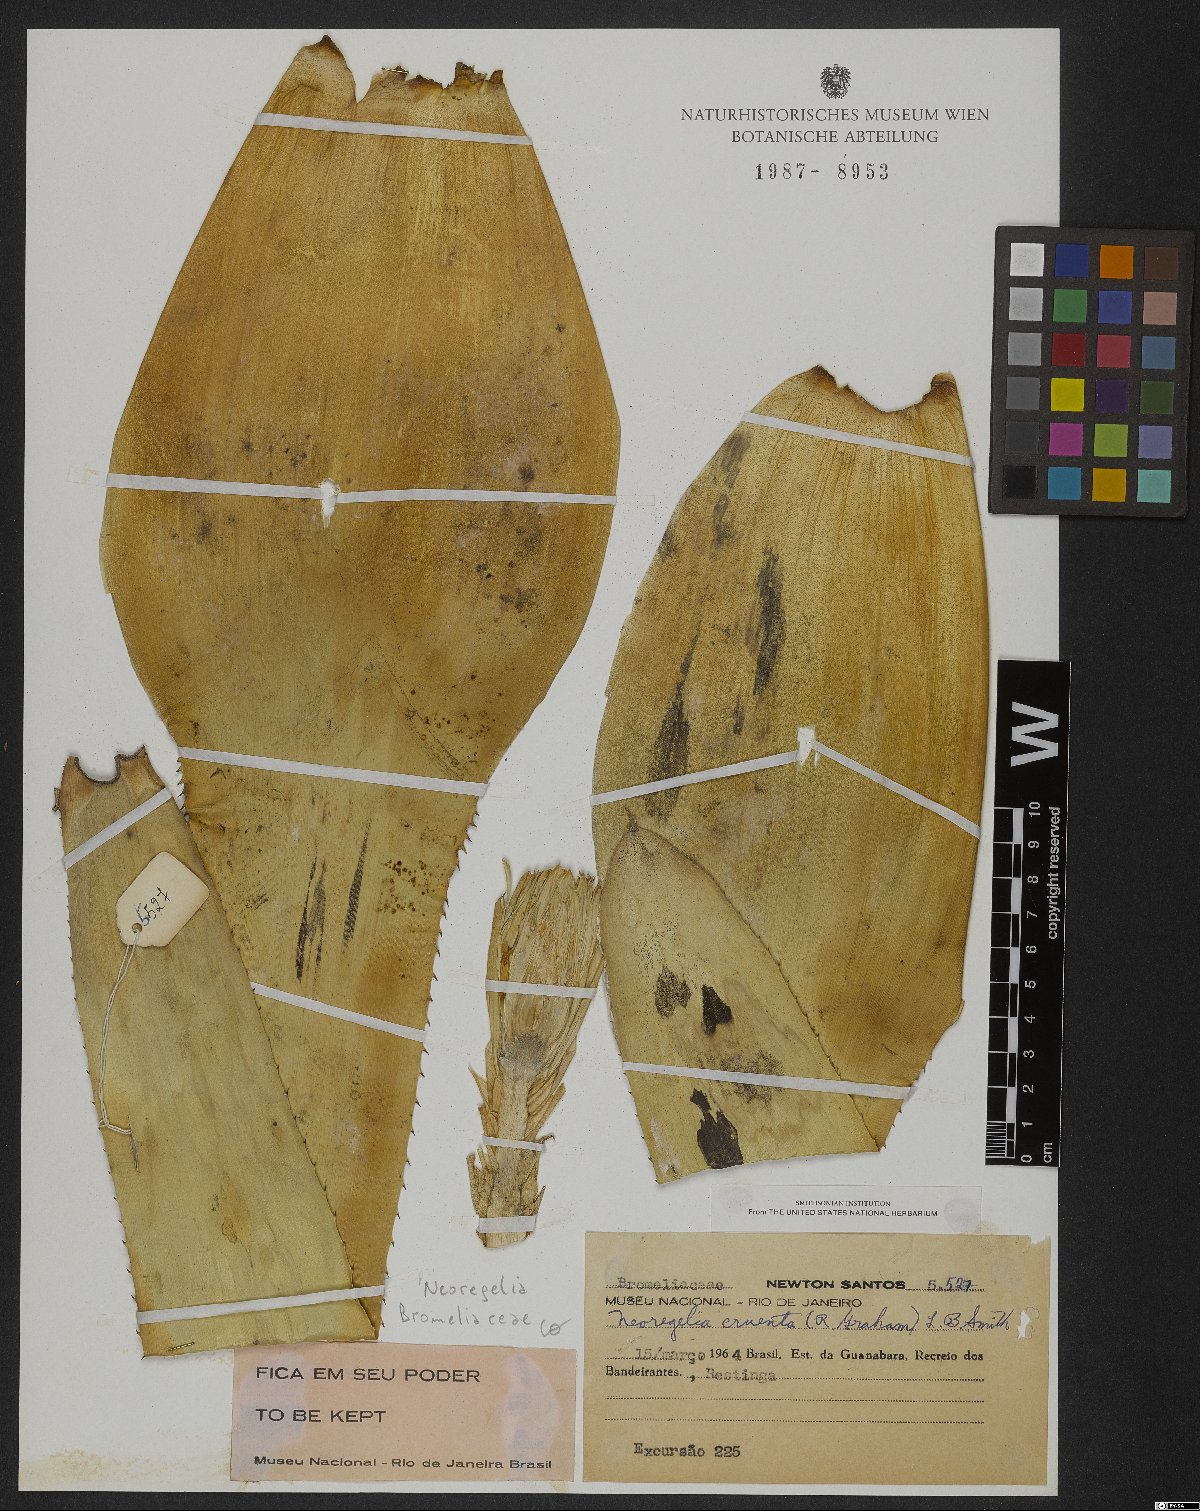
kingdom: Plantae
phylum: Tracheophyta
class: Liliopsida
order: Poales
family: Bromeliaceae
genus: Neoregelia
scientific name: Neoregelia cruenta
